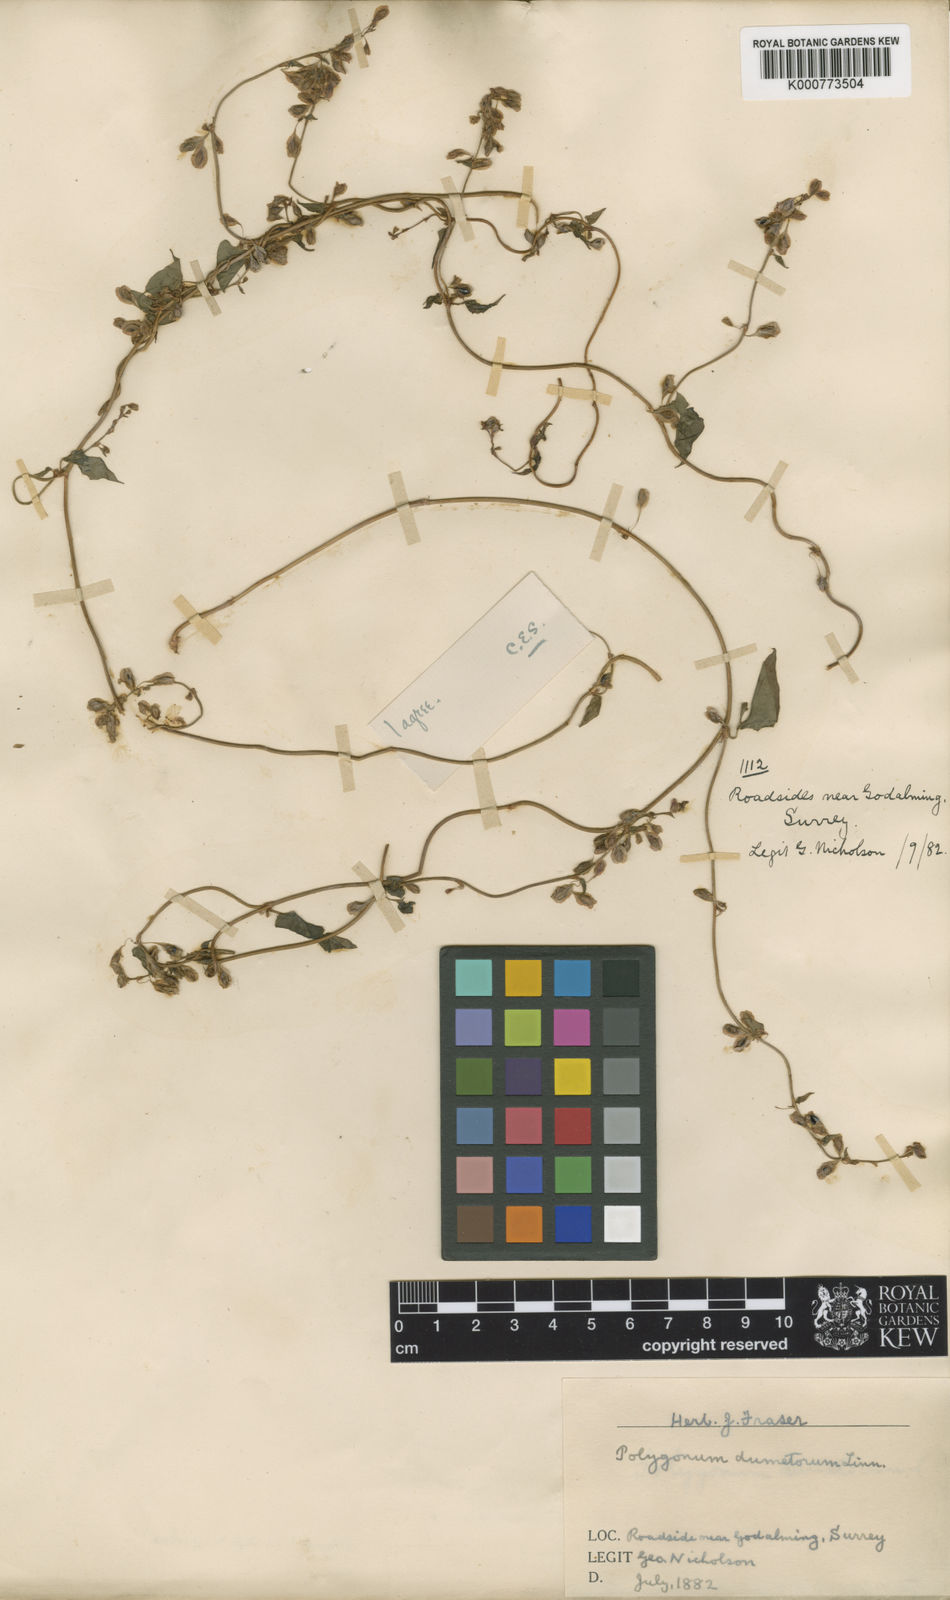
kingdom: Plantae
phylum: Tracheophyta
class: Magnoliopsida
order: Caryophyllales
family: Polygonaceae
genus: Fallopia
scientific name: Fallopia dumetorum
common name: Copse-bindweed
